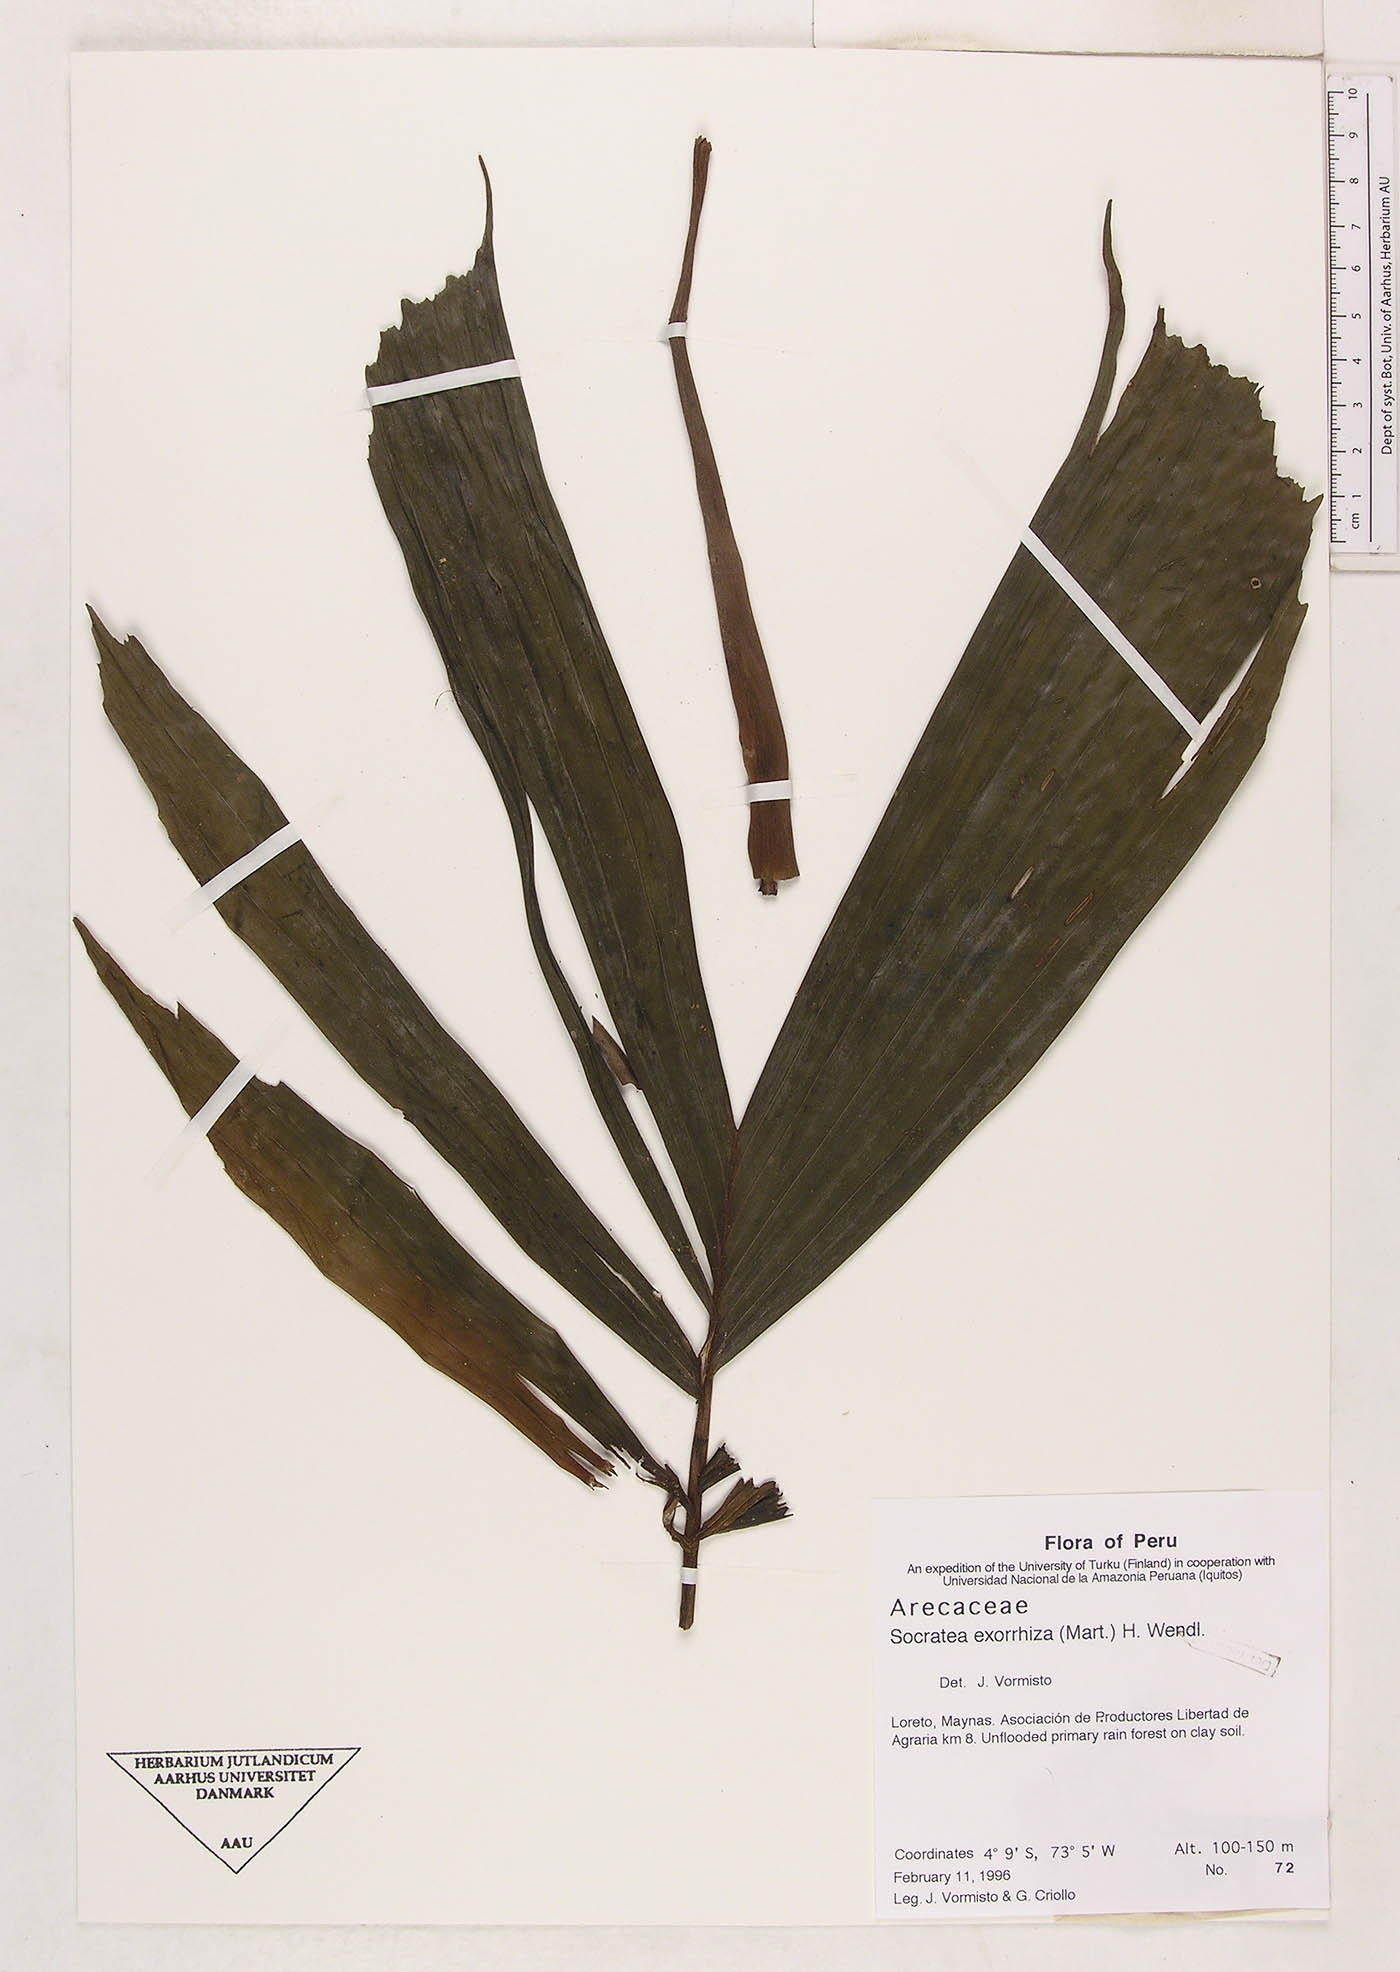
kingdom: Plantae
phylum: Tracheophyta
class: Liliopsida
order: Arecales
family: Arecaceae
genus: Socratea
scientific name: Socratea exorrhiza
